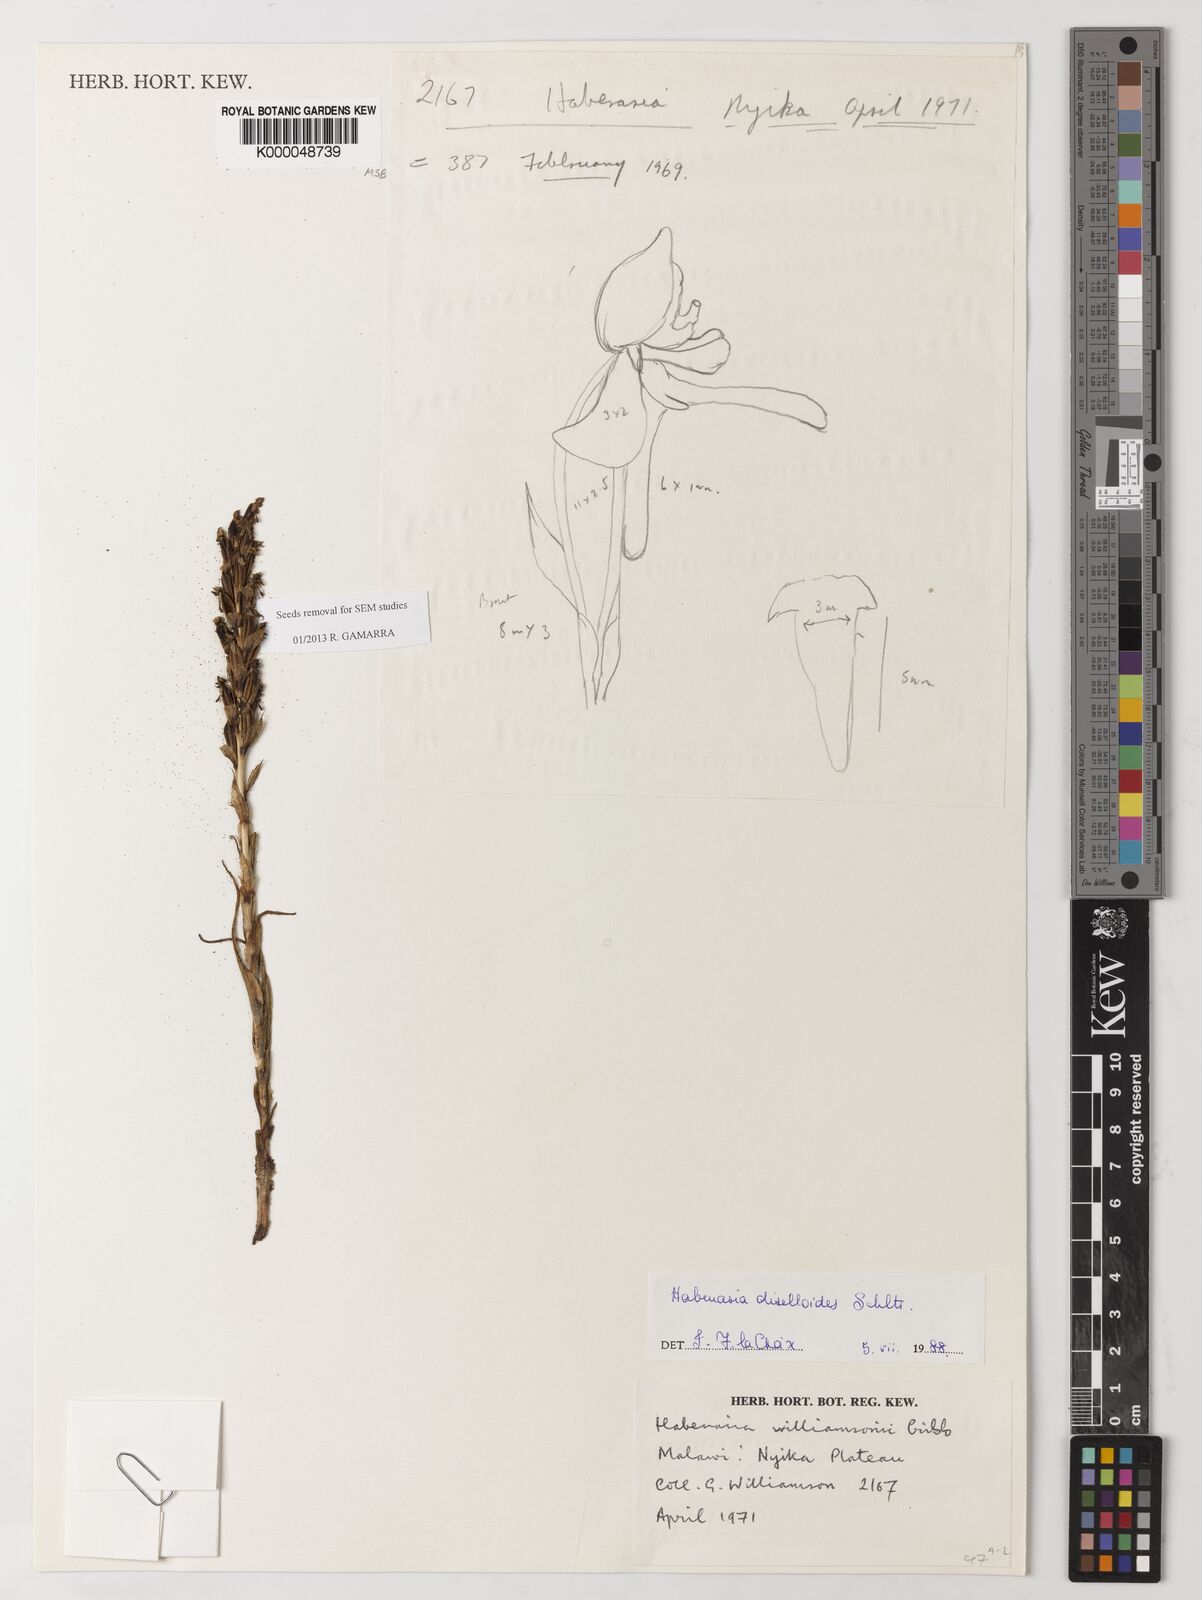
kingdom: Plantae
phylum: Tracheophyta
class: Liliopsida
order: Asparagales
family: Orchidaceae
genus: Habenaria
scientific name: Habenaria diselloides
